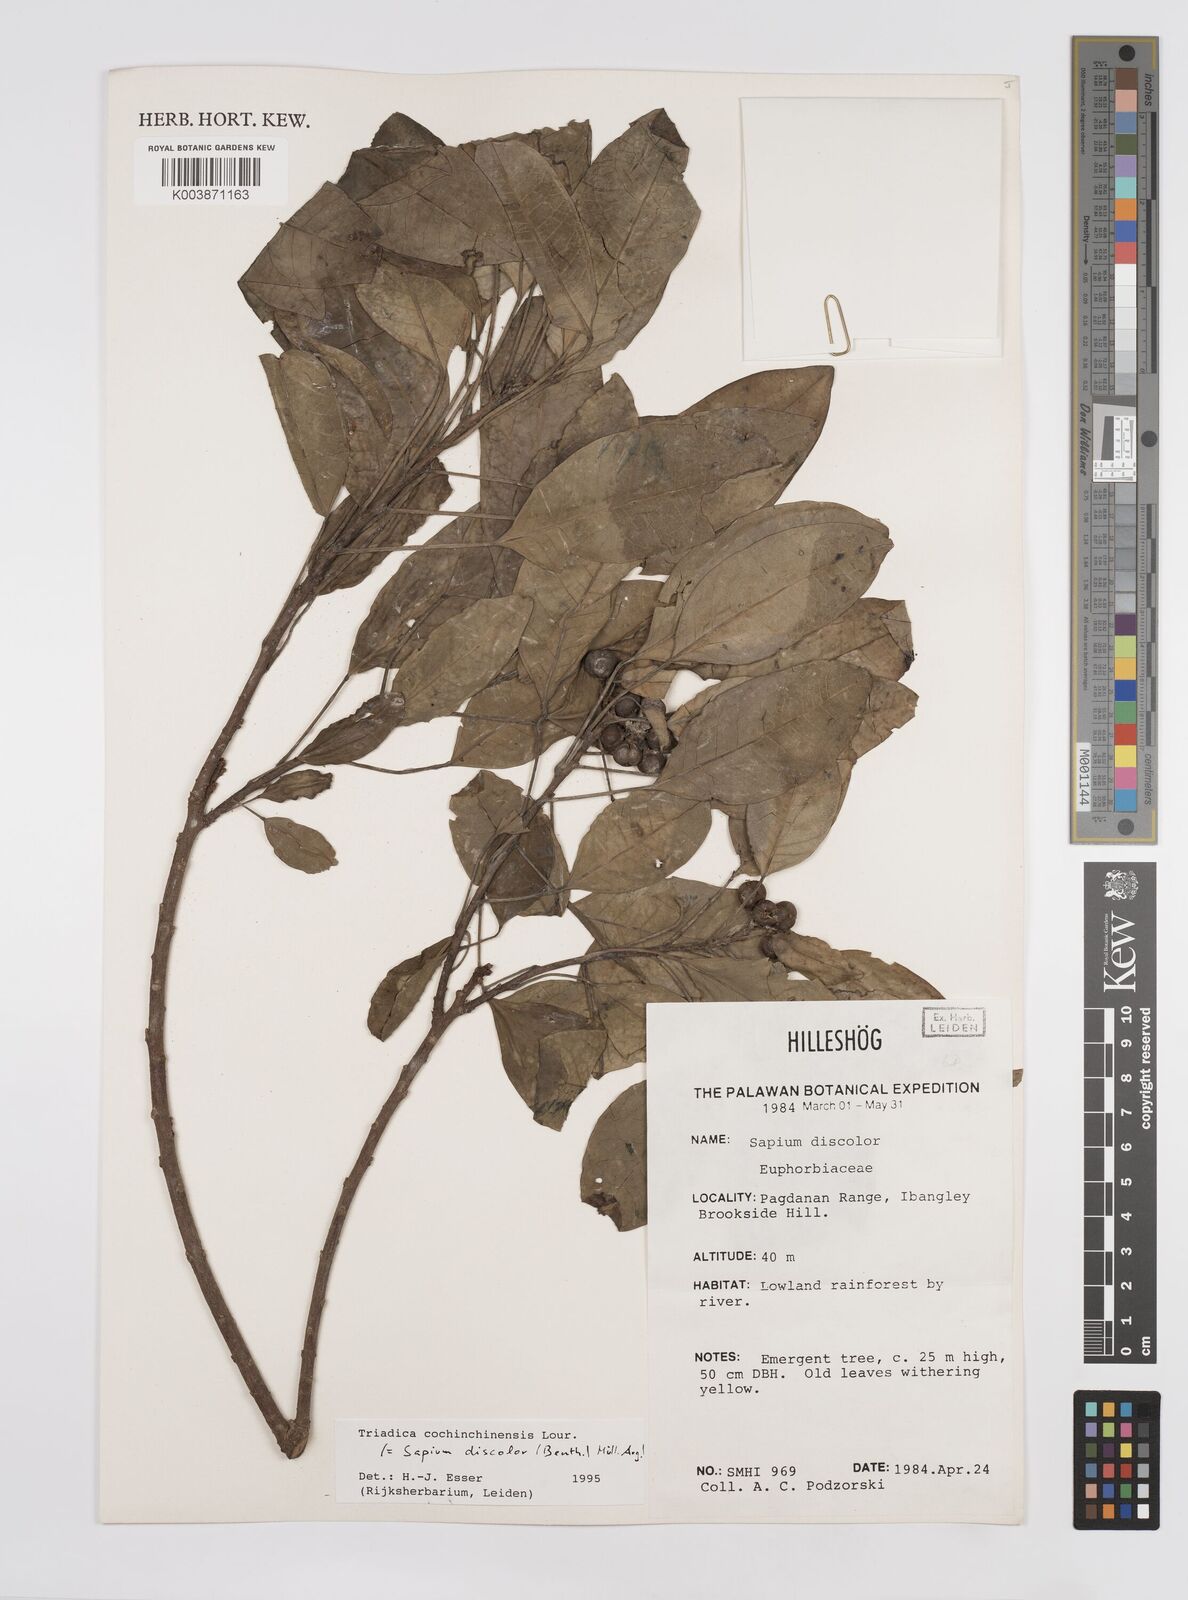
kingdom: Plantae
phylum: Tracheophyta
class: Magnoliopsida
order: Malpighiales
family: Euphorbiaceae
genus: Triadica
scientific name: Triadica cochinchinensis
